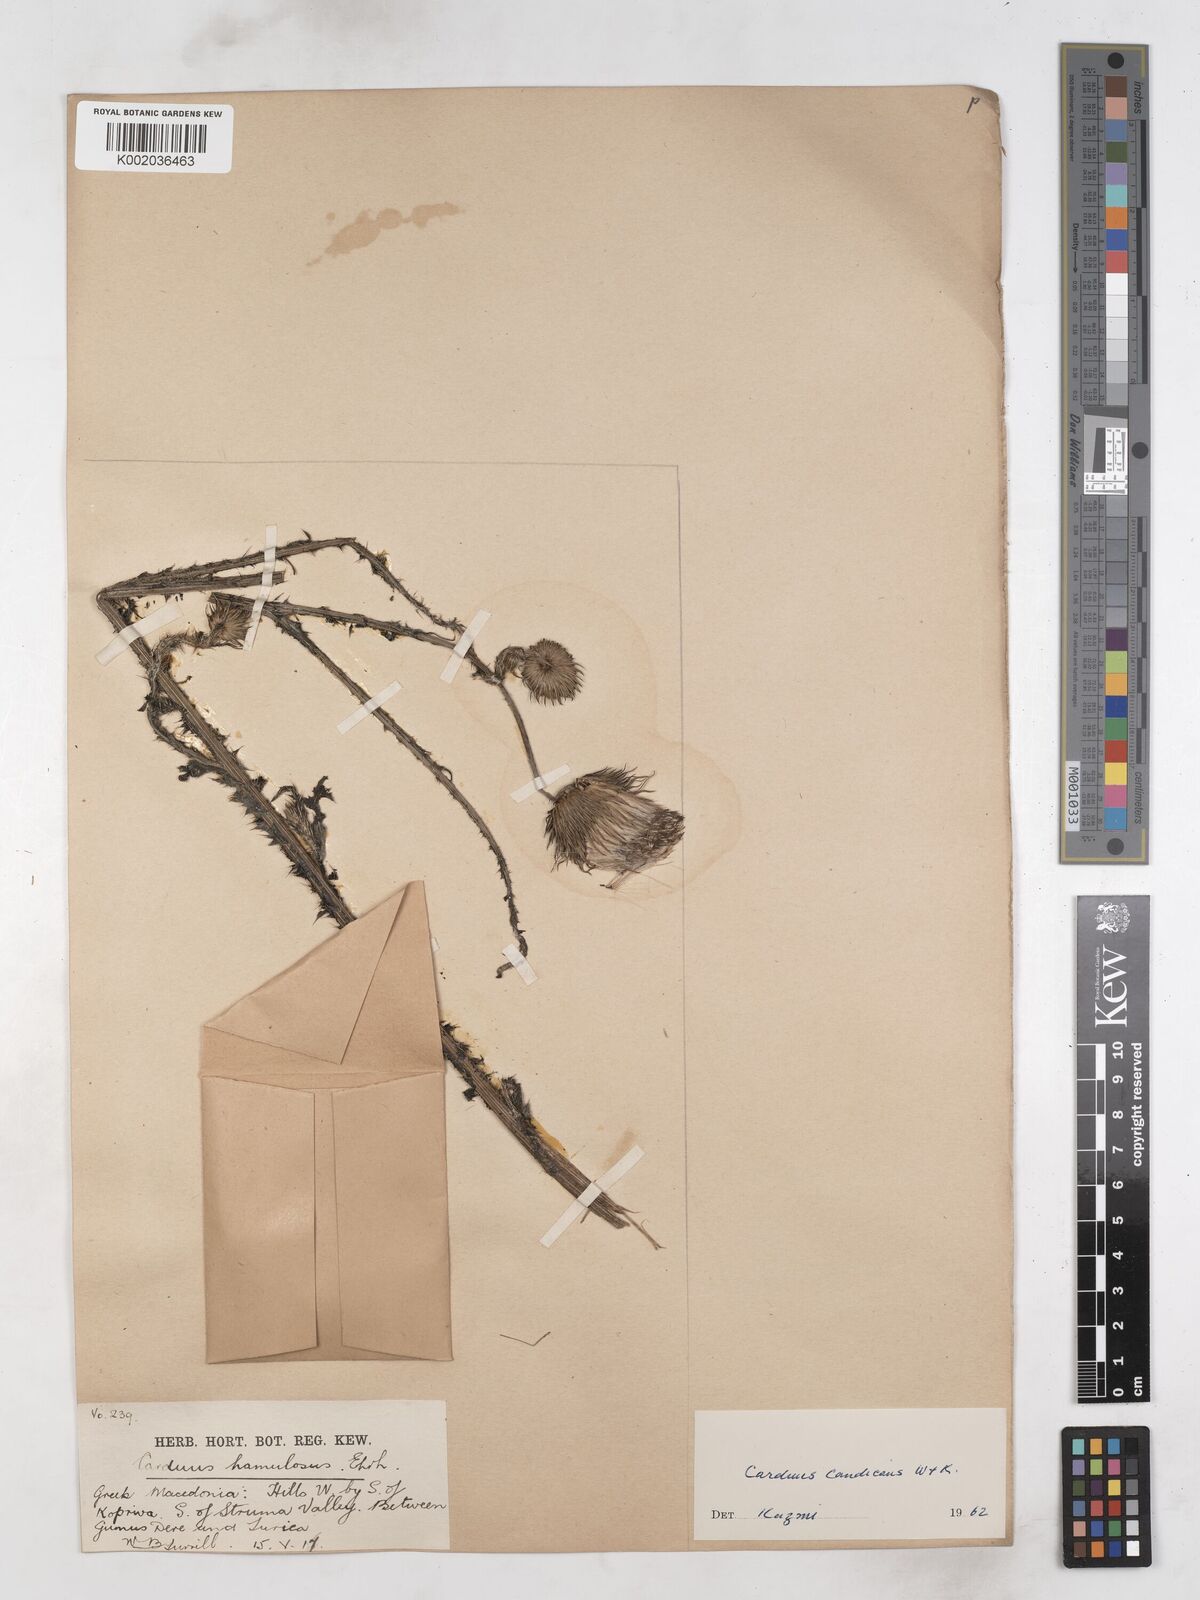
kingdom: Plantae
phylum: Tracheophyta
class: Magnoliopsida
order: Asterales
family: Asteraceae
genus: Carduus
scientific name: Carduus candicans
